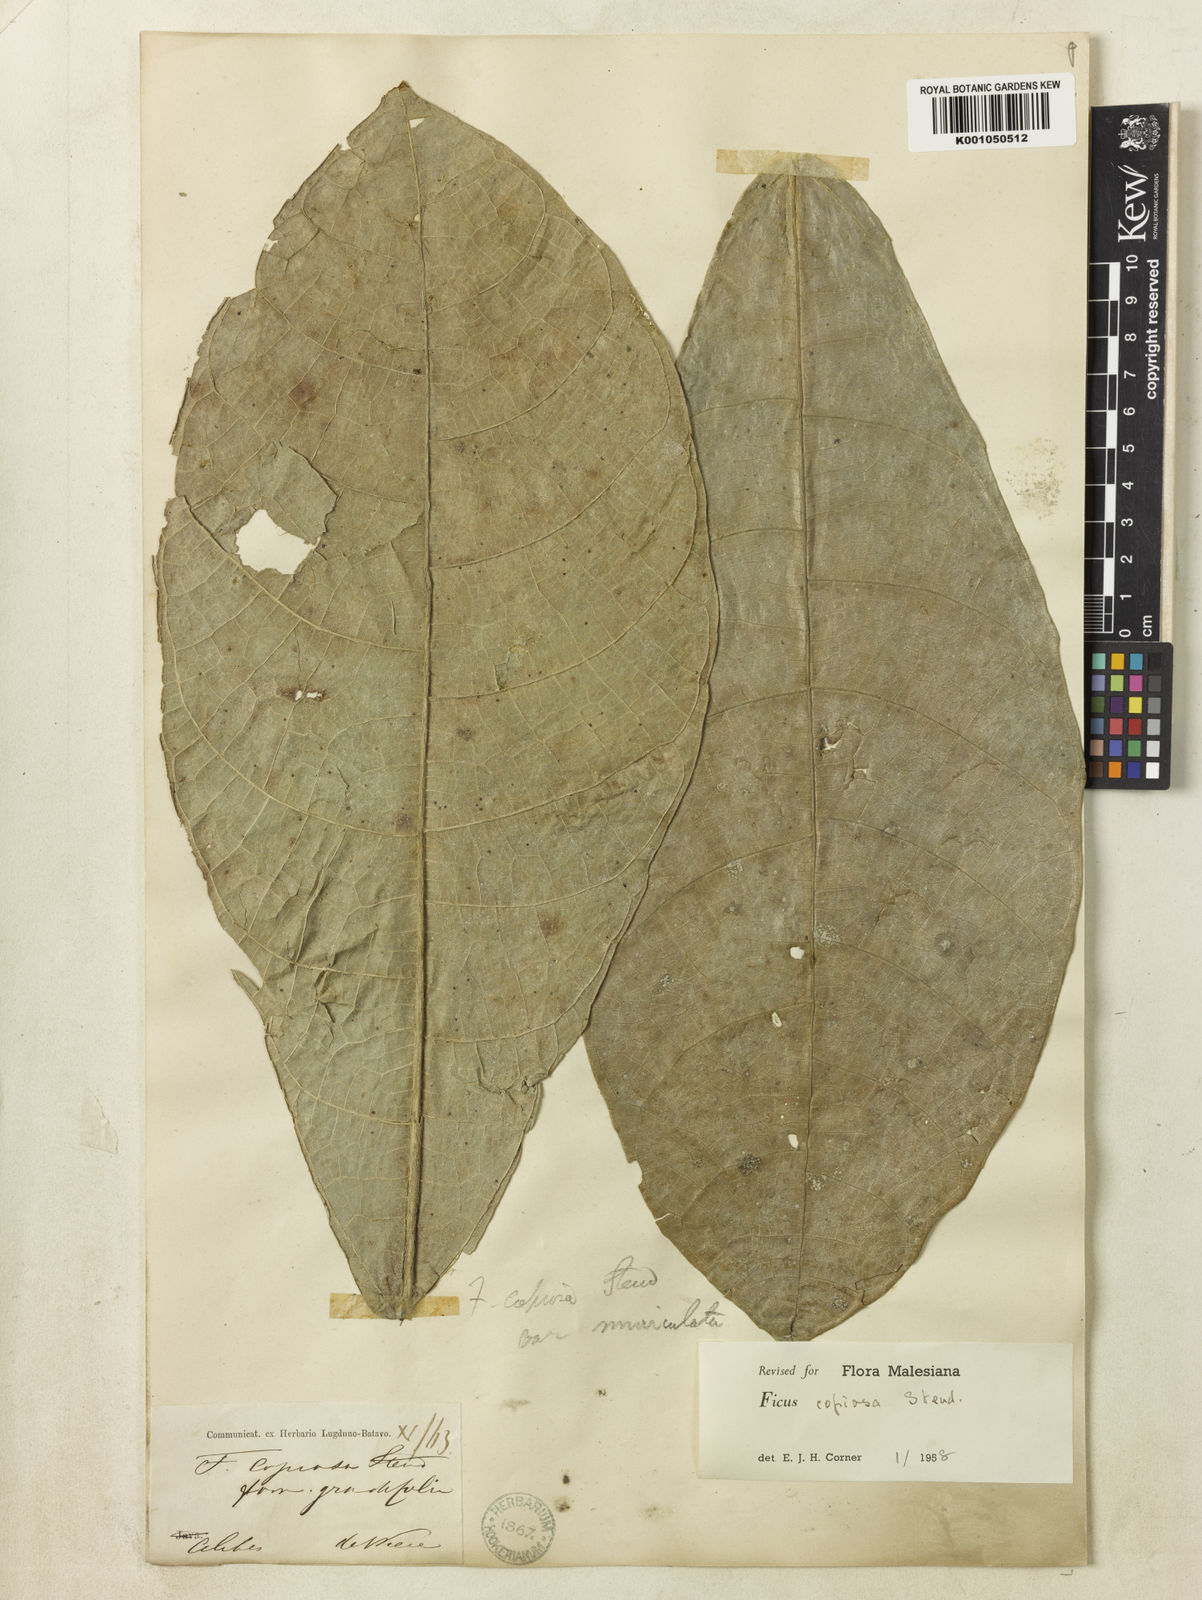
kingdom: Plantae
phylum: Tracheophyta
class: Magnoliopsida
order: Rosales
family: Moraceae
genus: Ficus
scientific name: Ficus copiosa
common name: Plentiful fig
